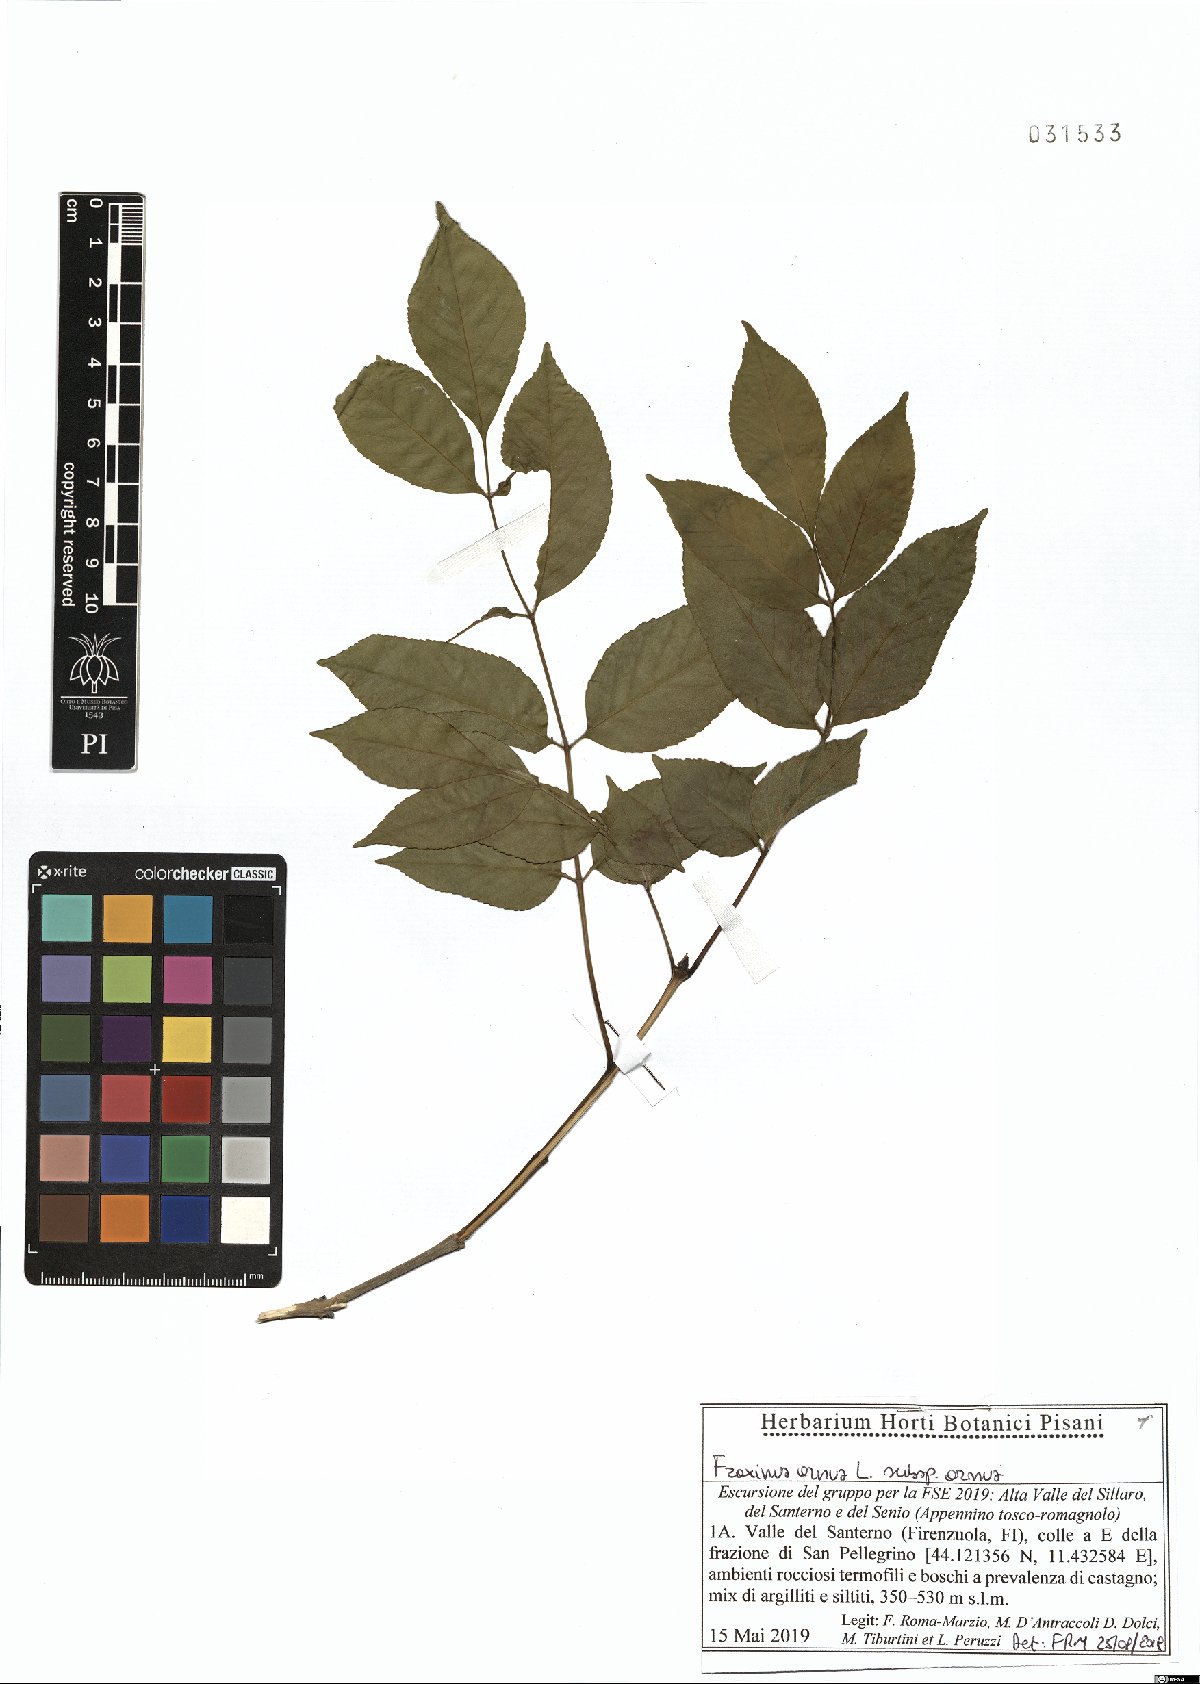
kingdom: Plantae
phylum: Tracheophyta
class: Magnoliopsida
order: Lamiales
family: Oleaceae
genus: Fraxinus
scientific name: Fraxinus ornus
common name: Manna ash
